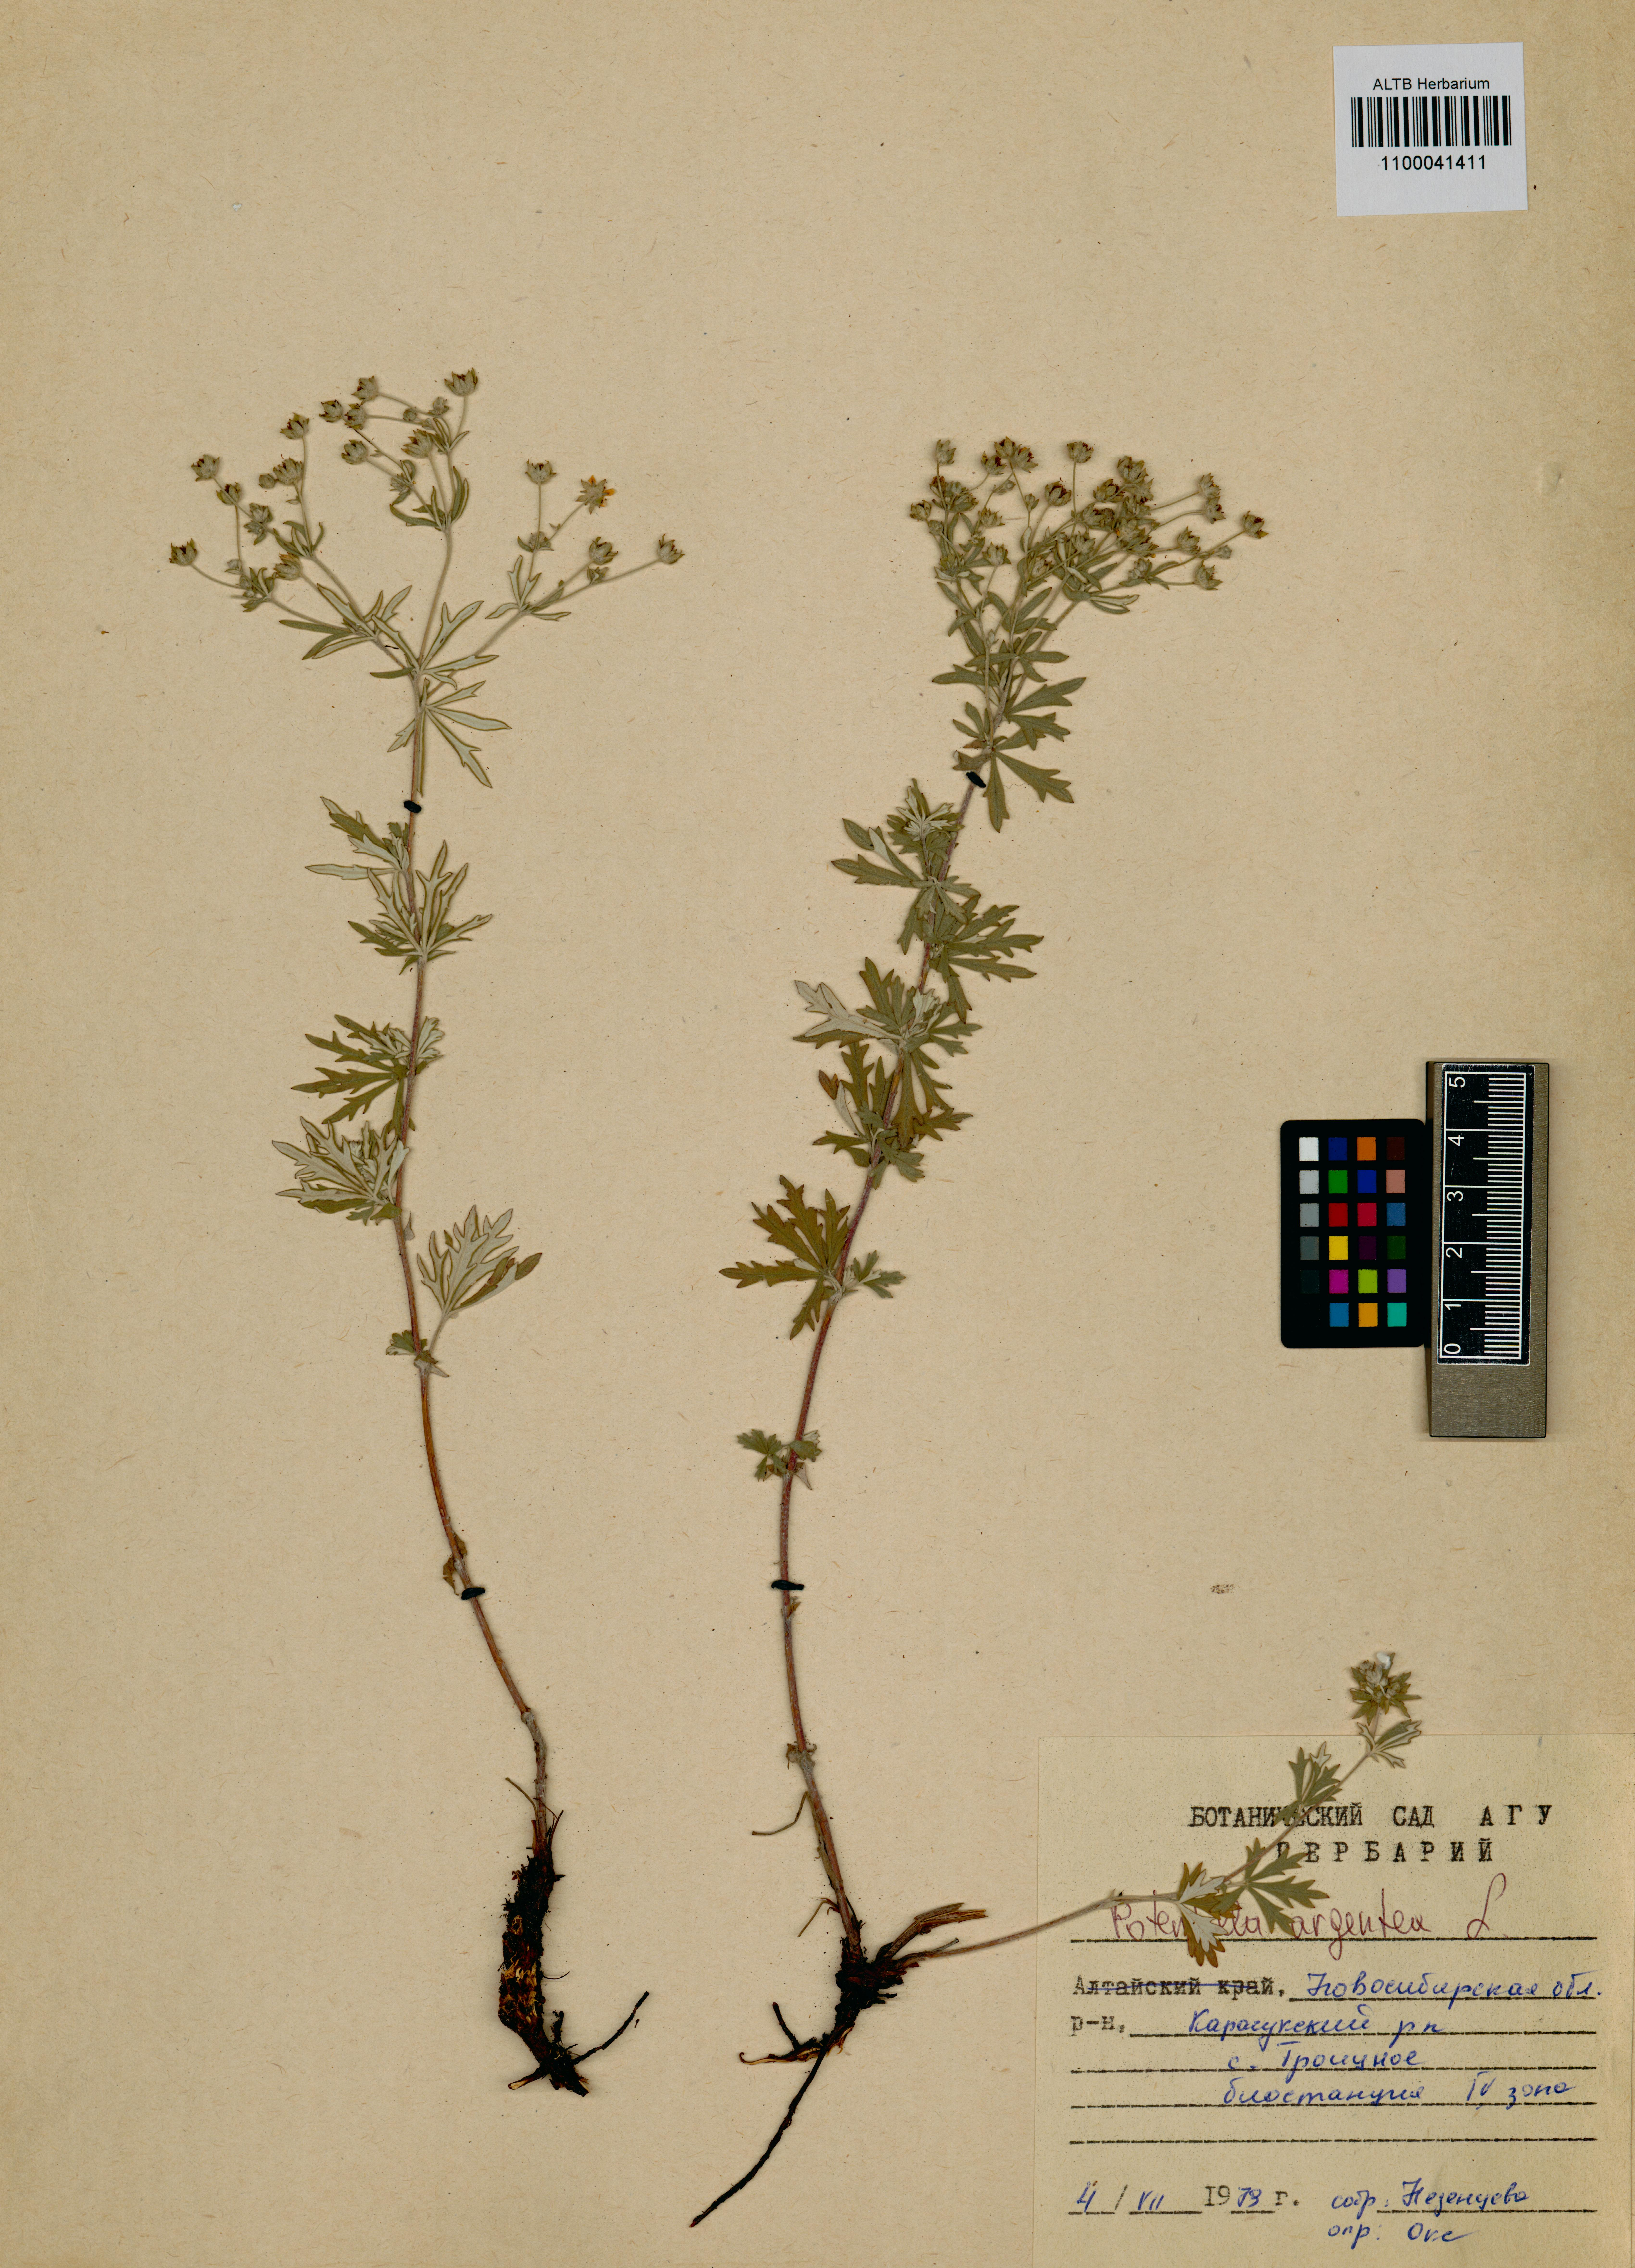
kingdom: Plantae
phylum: Tracheophyta
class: Magnoliopsida
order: Rosales
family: Rosaceae
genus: Potentilla
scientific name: Potentilla argentea
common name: Hoary cinquefoil
